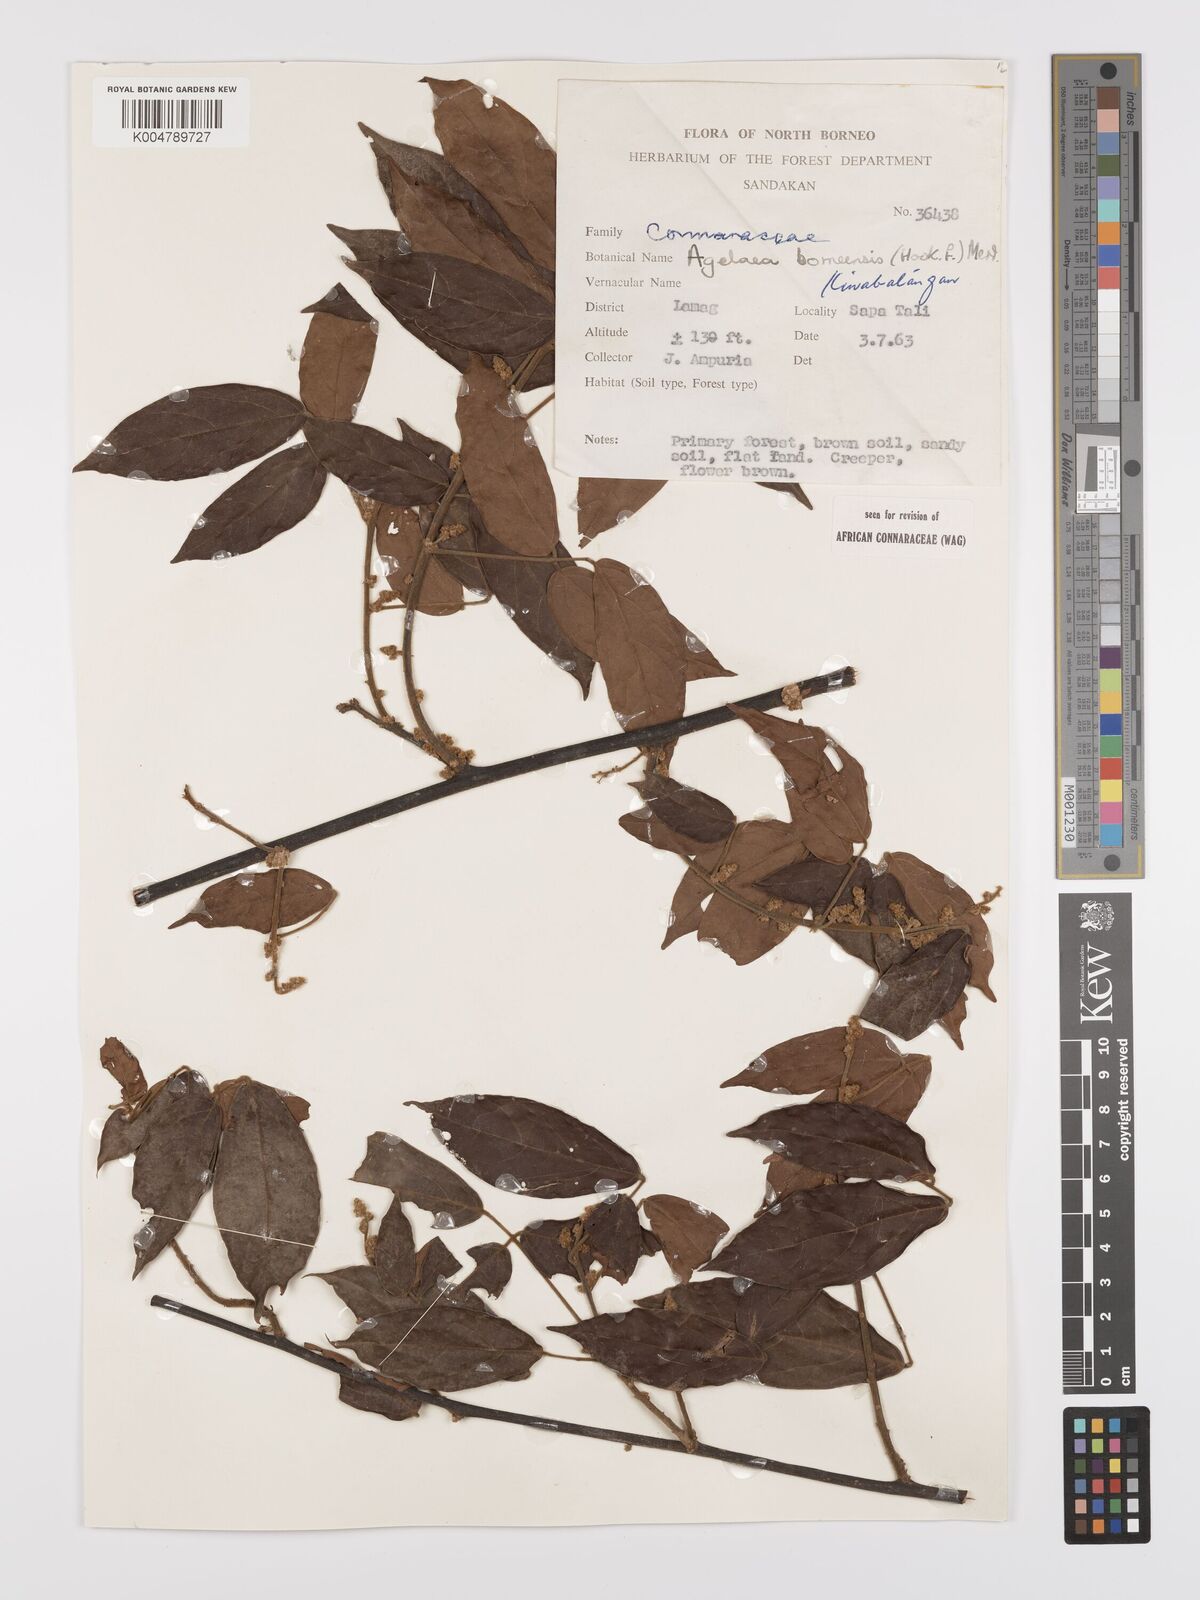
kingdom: Plantae
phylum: Tracheophyta
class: Magnoliopsida
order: Oxalidales
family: Connaraceae
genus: Agelaea
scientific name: Agelaea borneensis
